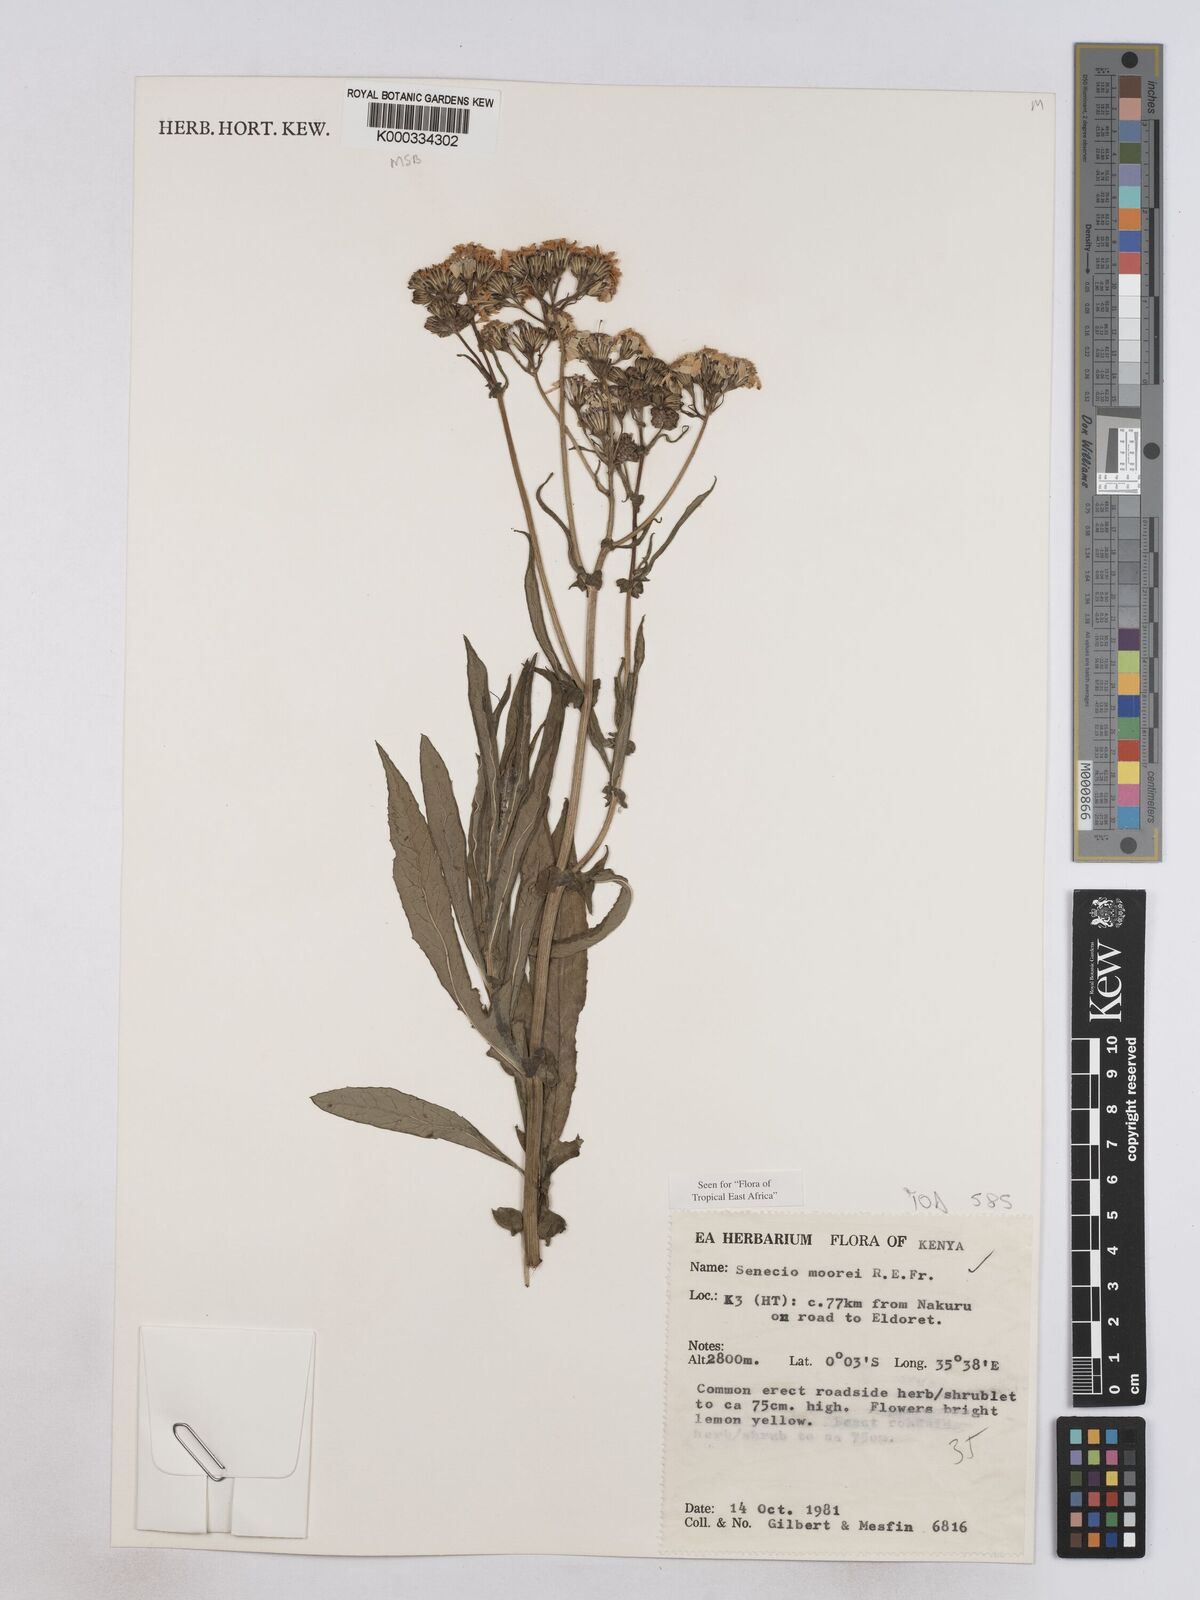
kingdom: Plantae
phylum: Tracheophyta
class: Magnoliopsida
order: Asterales
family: Asteraceae
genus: Senecio
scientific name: Senecio moorei
